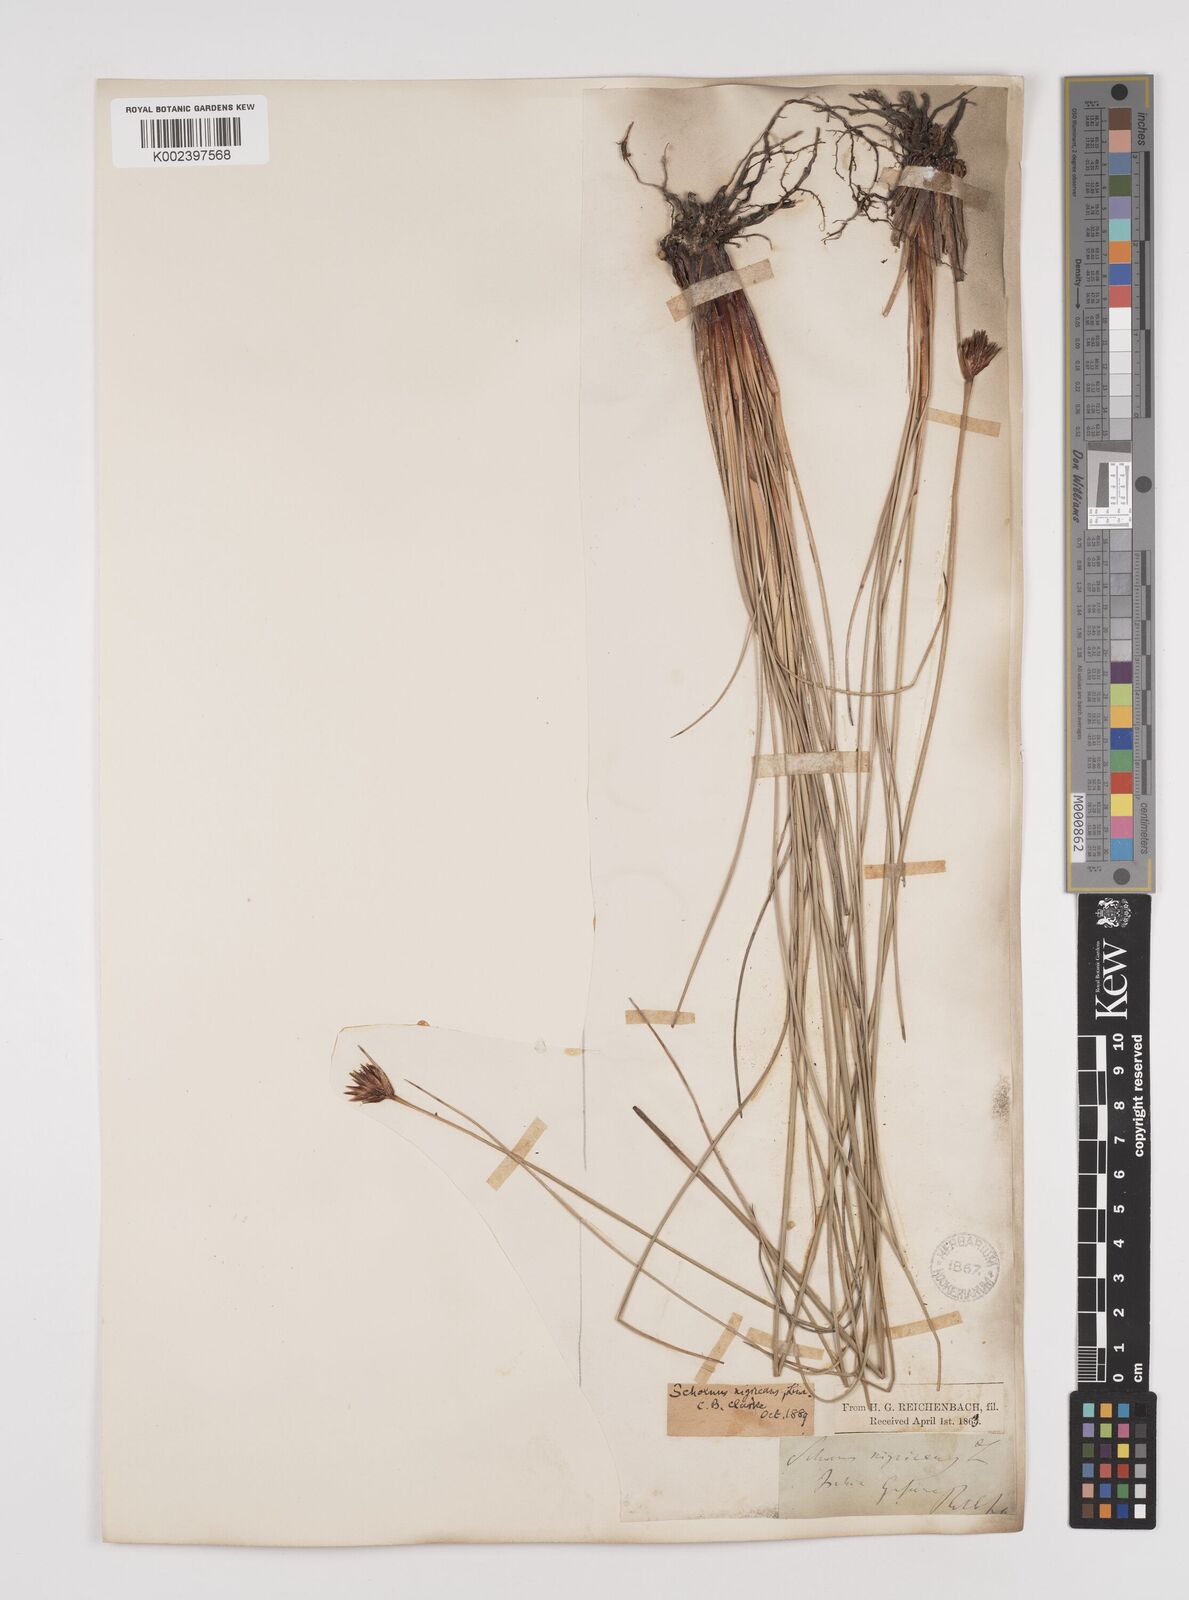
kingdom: Plantae
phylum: Tracheophyta
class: Liliopsida
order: Poales
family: Cyperaceae
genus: Schoenus
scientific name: Schoenus nigricans
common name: Black bog-rush
